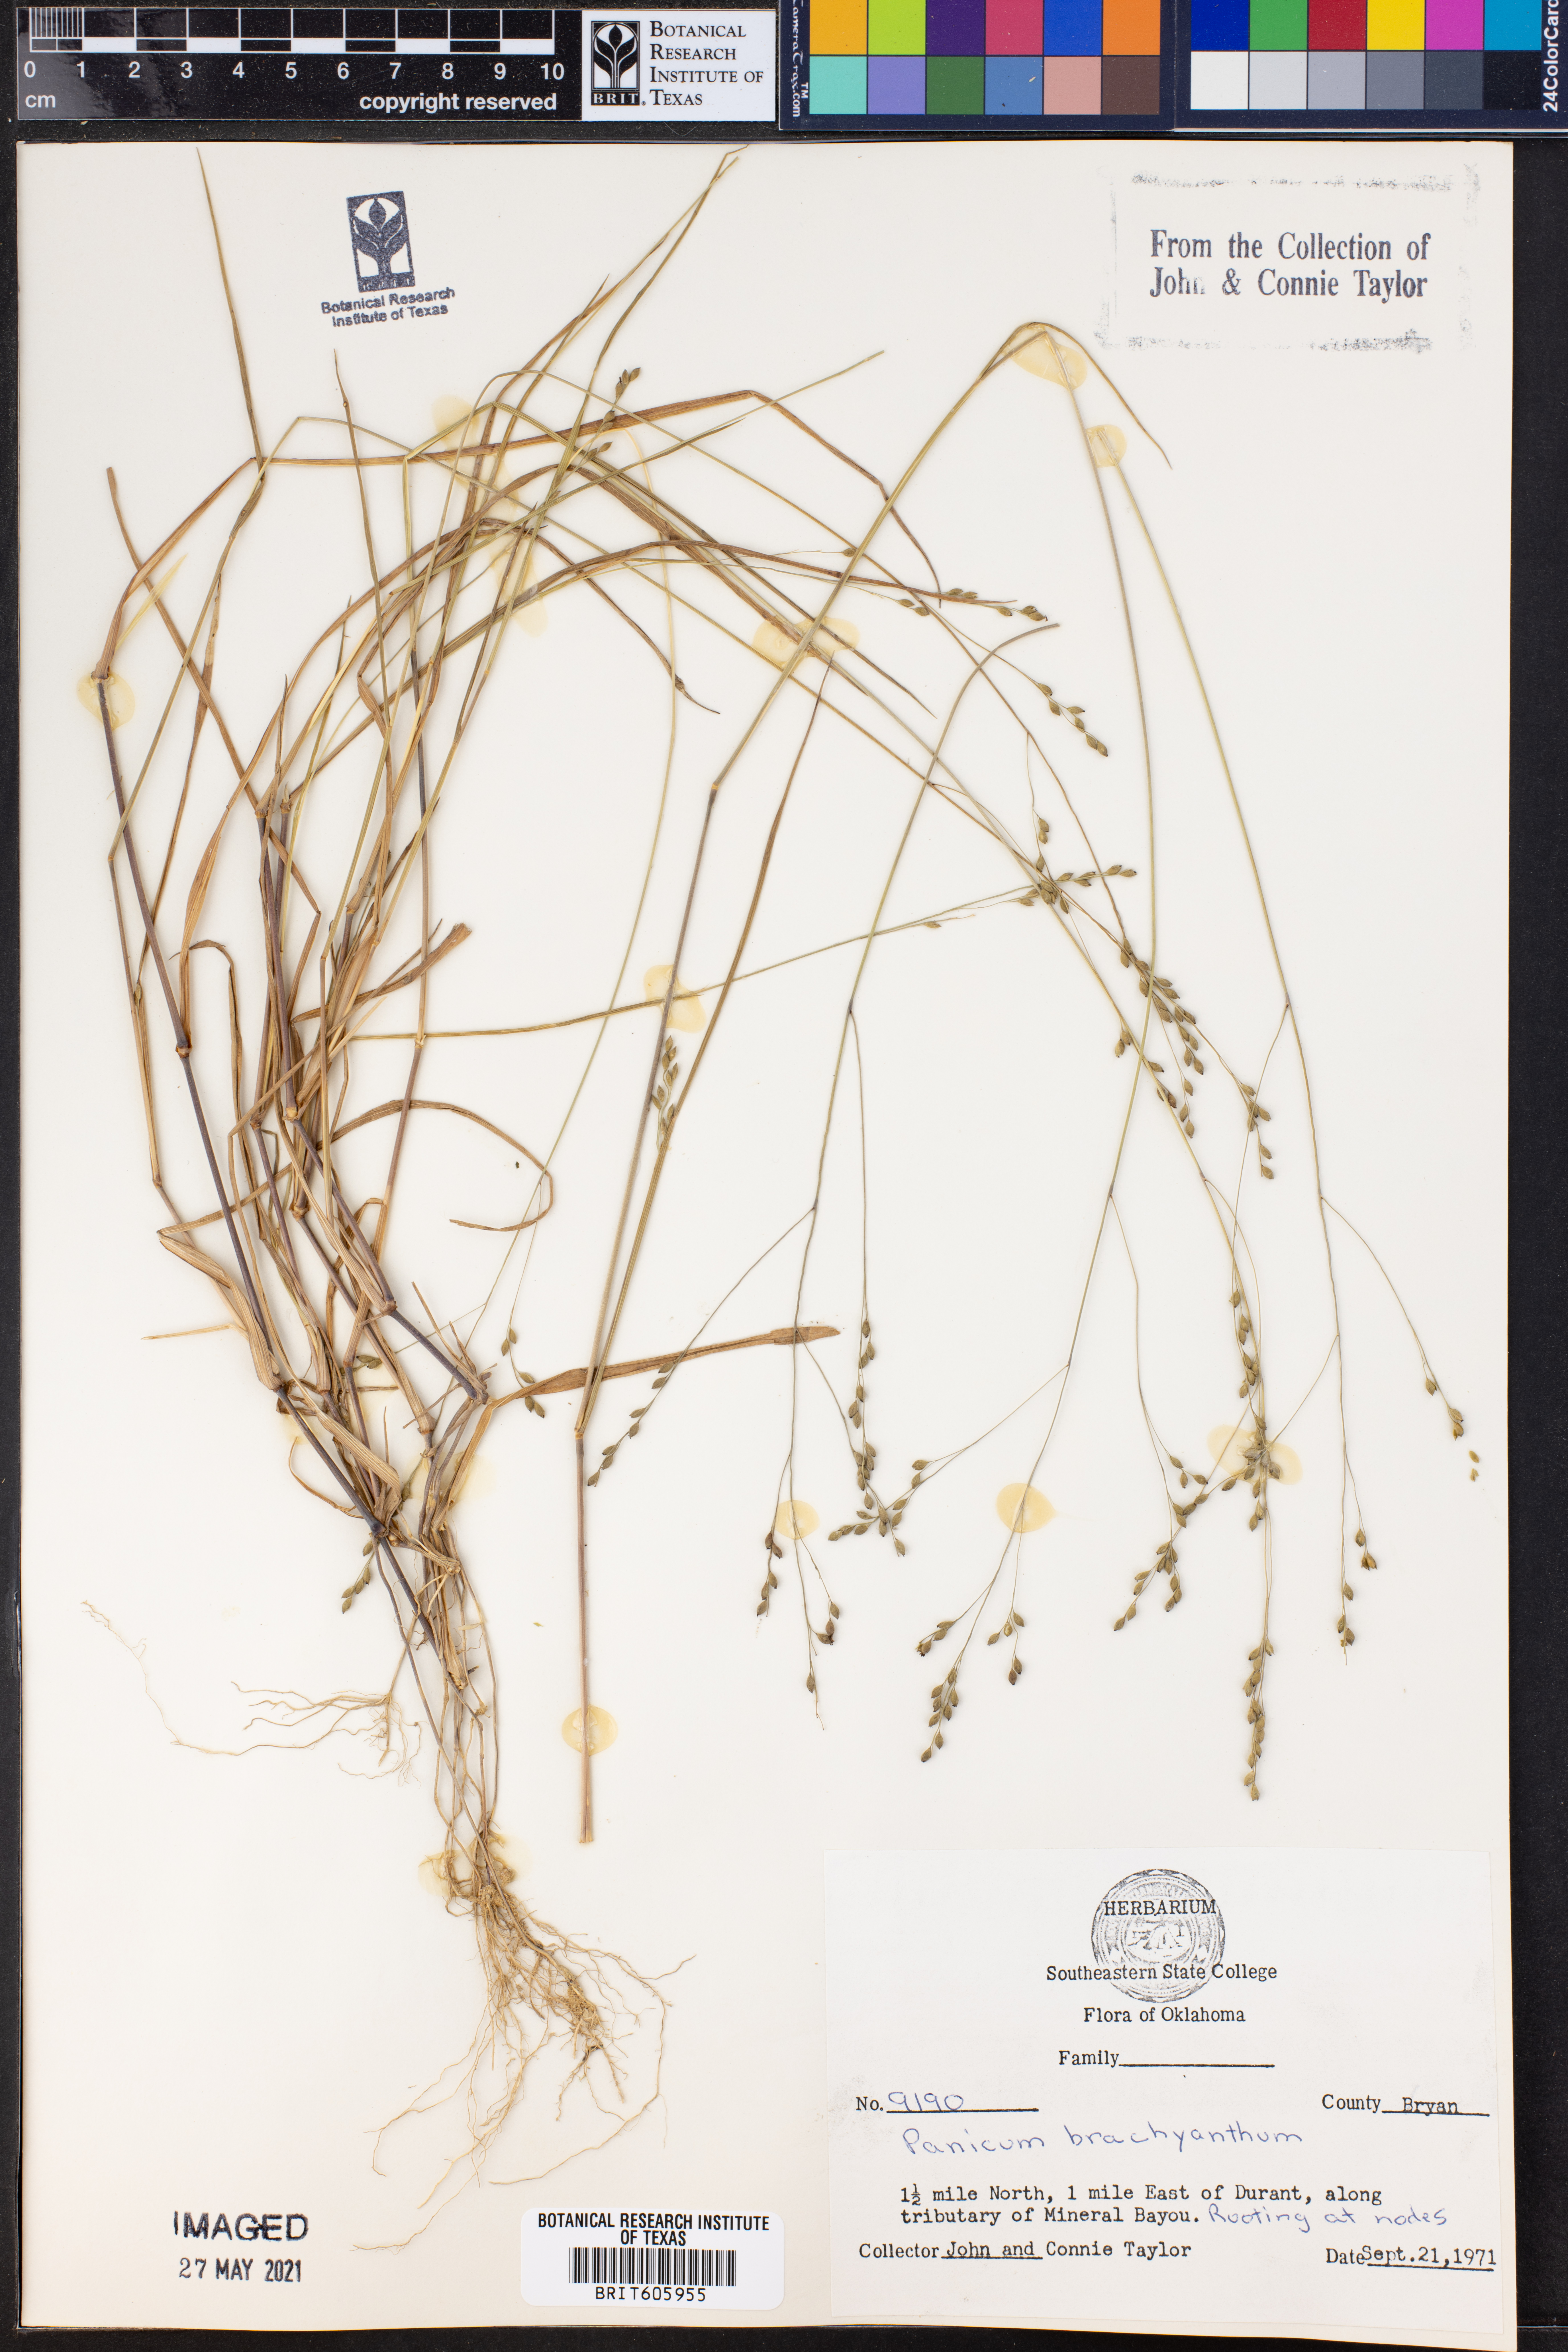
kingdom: Plantae
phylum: Tracheophyta
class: Liliopsida
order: Poales
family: Poaceae
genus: Kellochloa
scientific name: Kellochloa brachyantha
